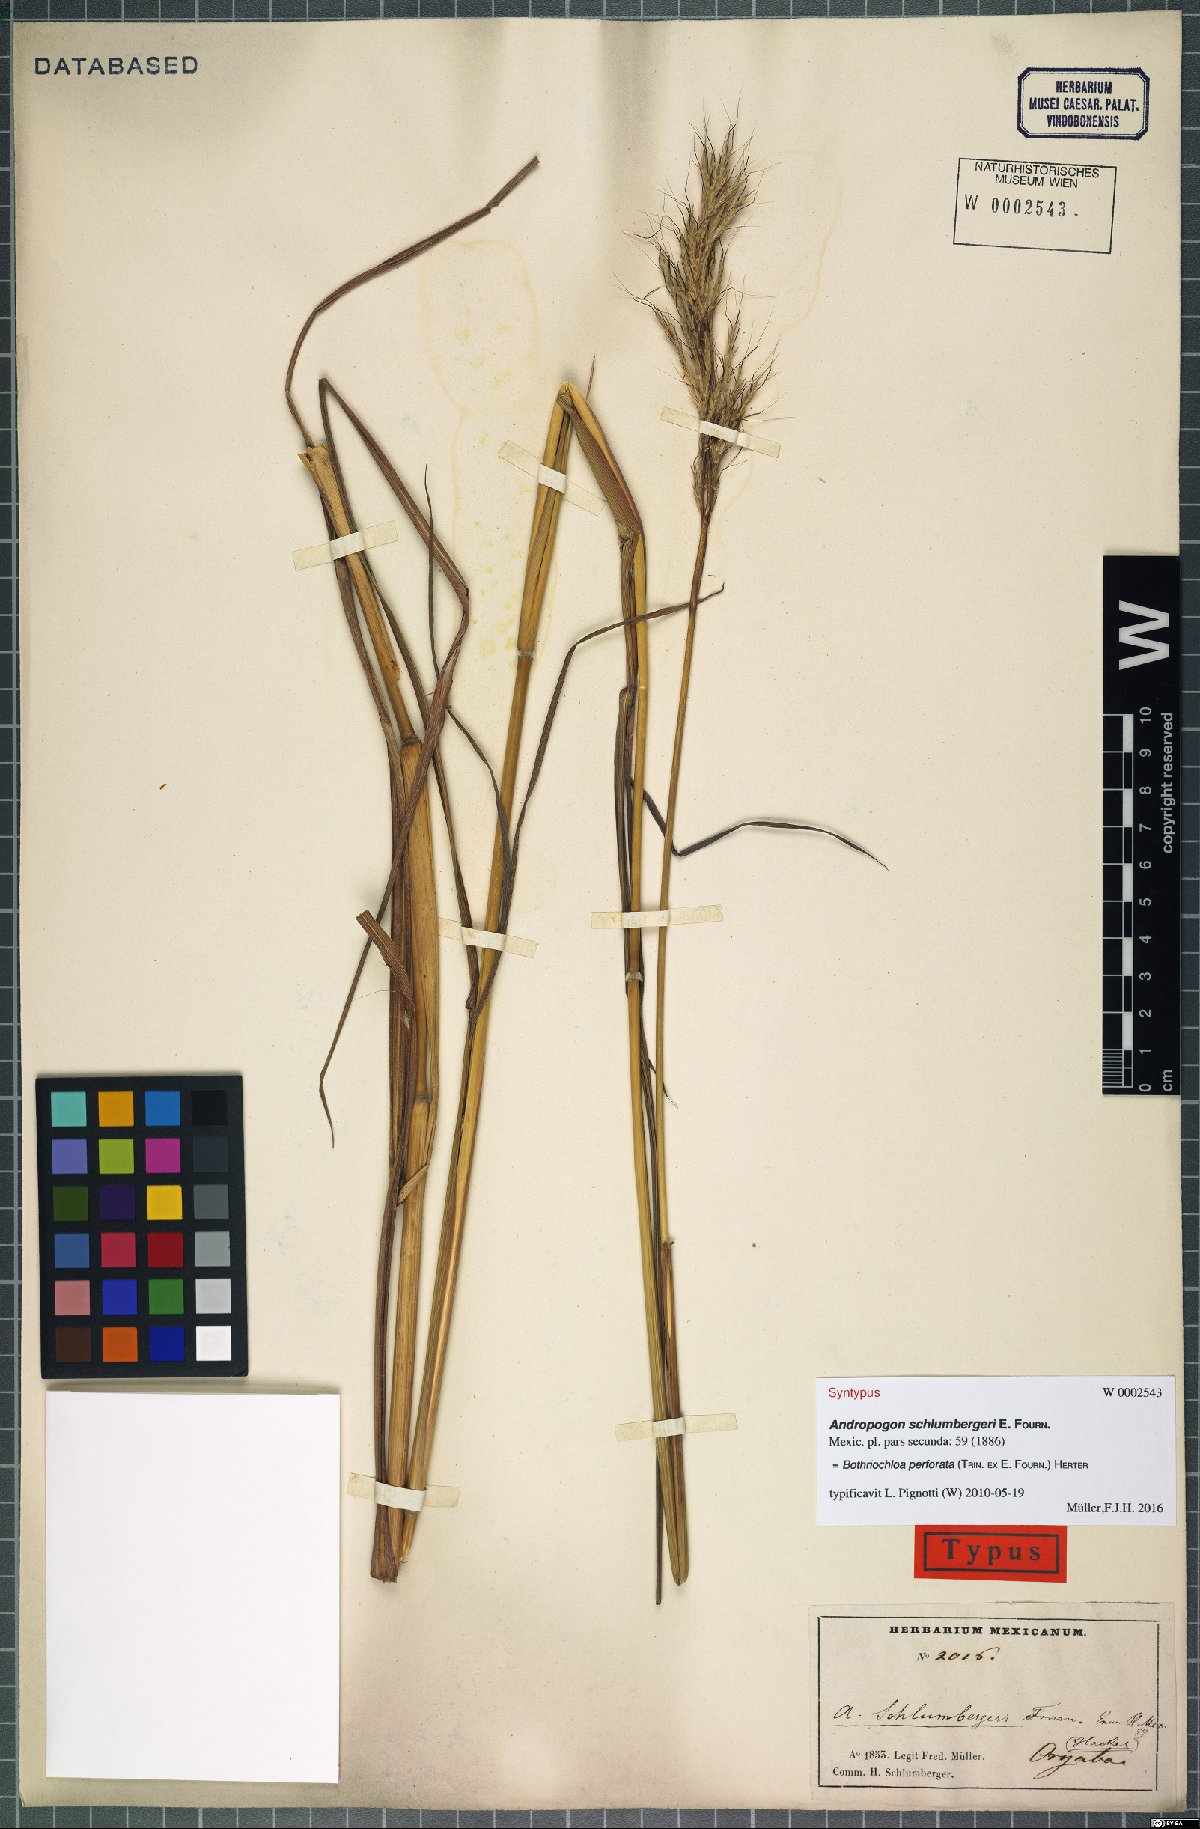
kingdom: Plantae
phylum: Tracheophyta
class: Liliopsida
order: Poales
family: Poaceae
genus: Bothriochloa
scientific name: Bothriochloa barbinodis
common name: Cane bluestem
